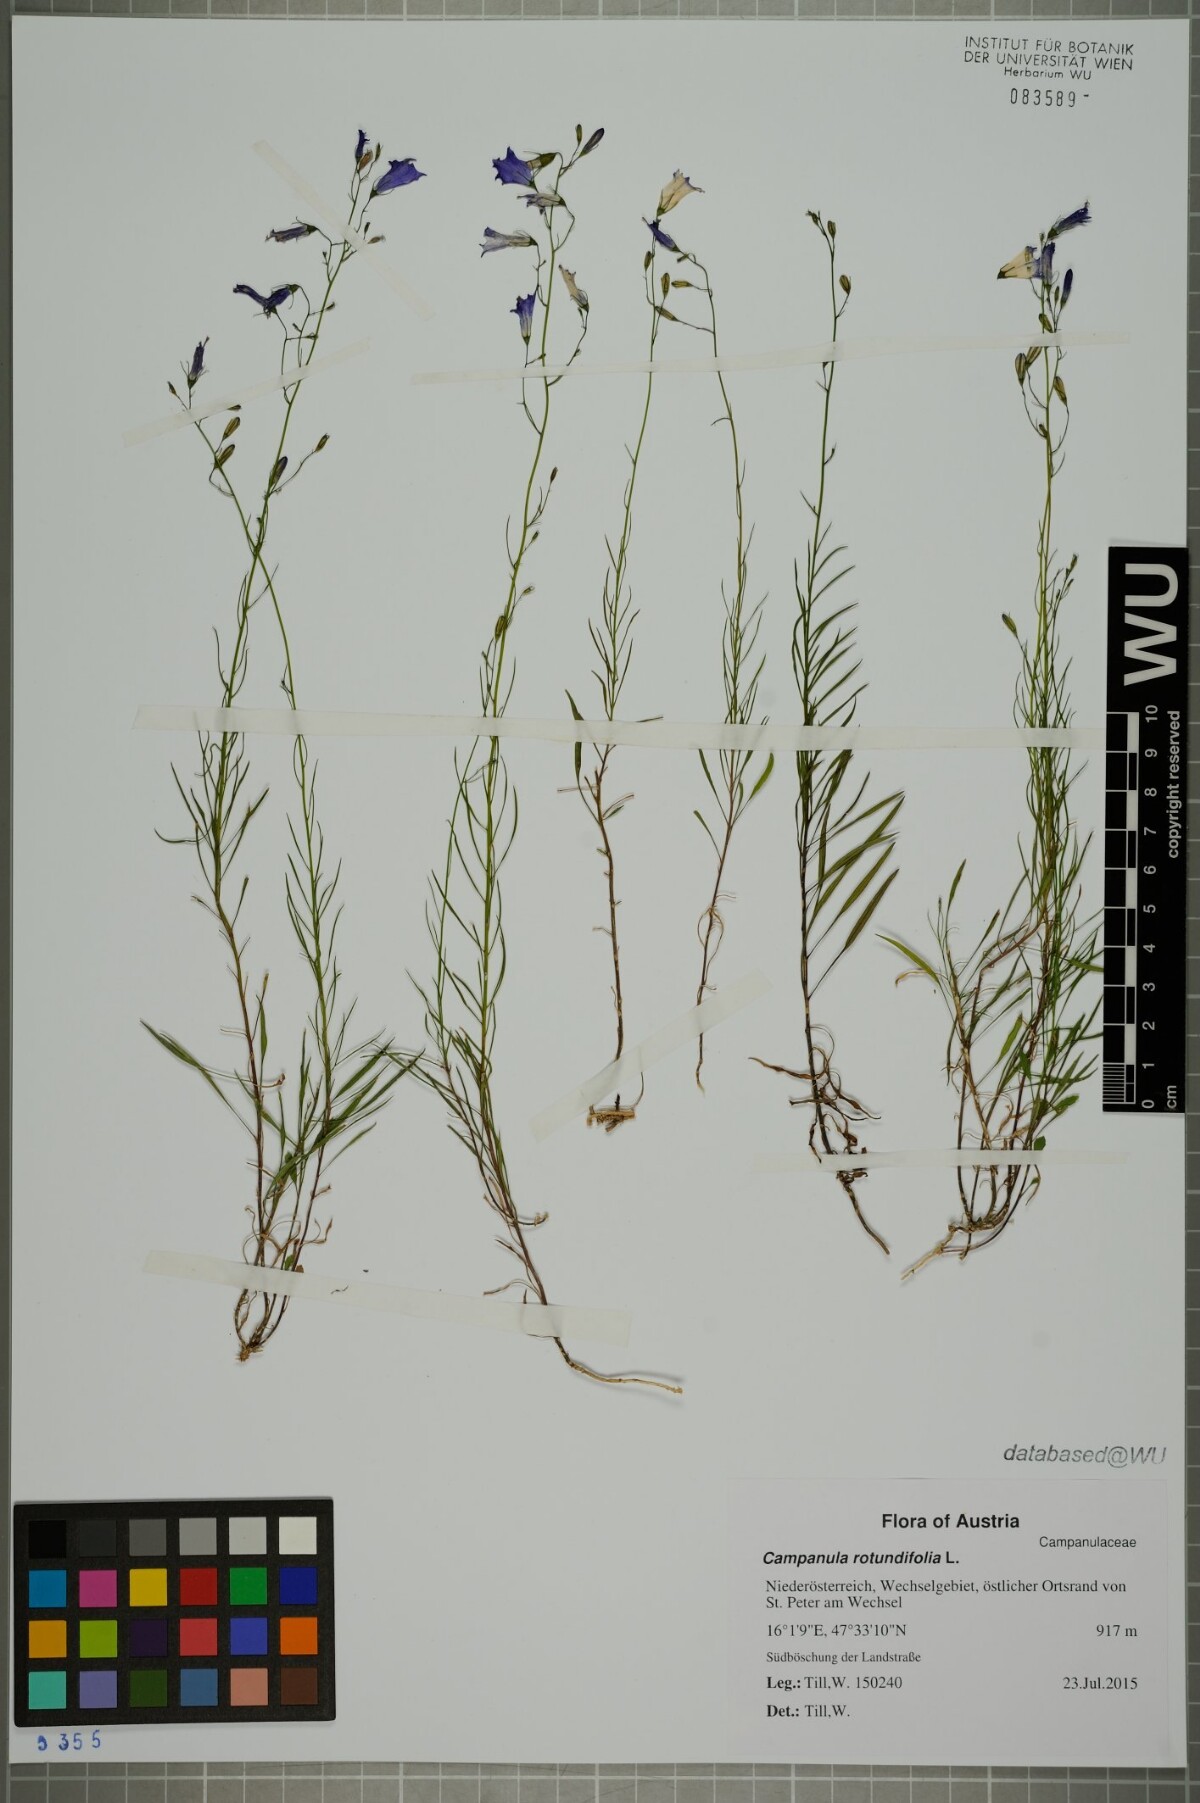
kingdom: Plantae
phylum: Tracheophyta
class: Magnoliopsida
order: Asterales
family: Campanulaceae
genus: Campanula
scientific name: Campanula rotundifolia
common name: Harebell
